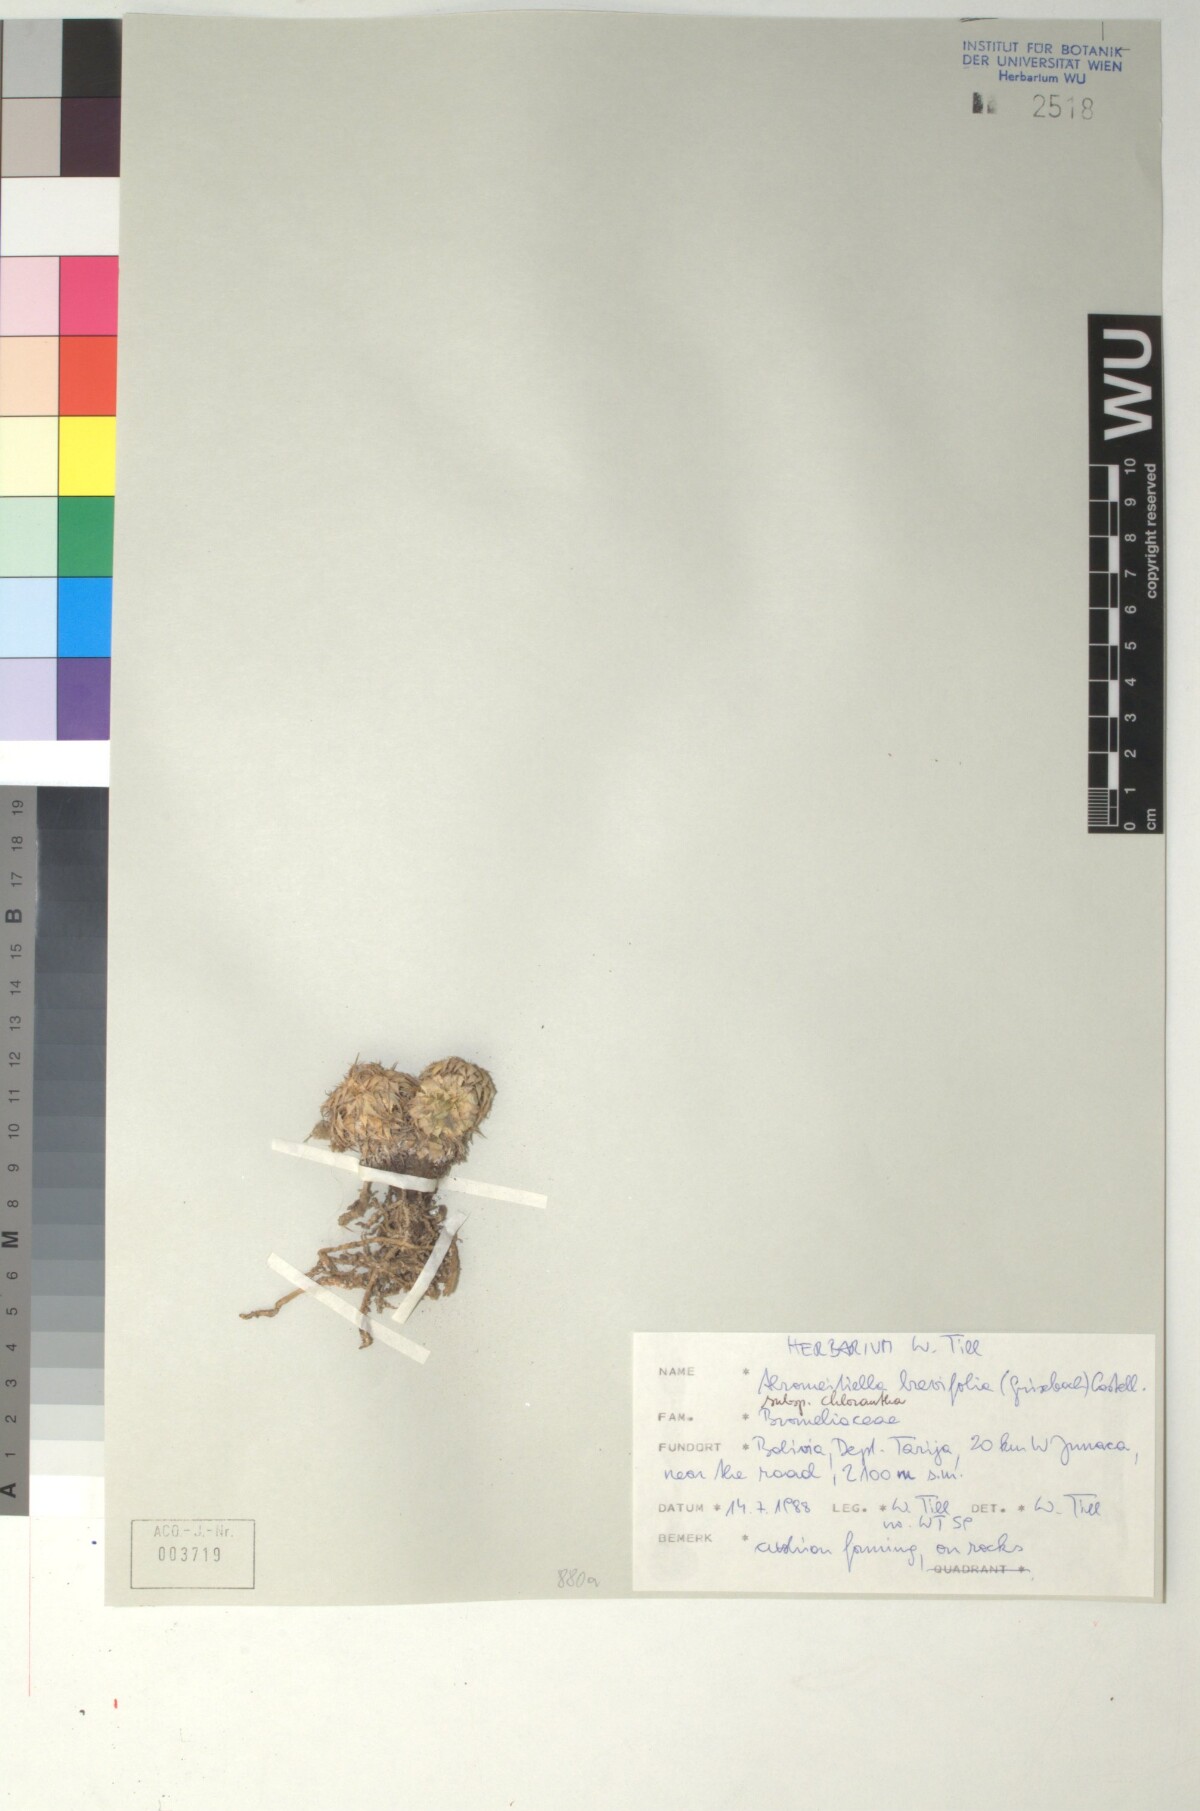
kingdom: Plantae
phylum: Tracheophyta
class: Liliopsida
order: Poales
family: Bromeliaceae
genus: Deuterocohnia
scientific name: Deuterocohnia brevifolia
